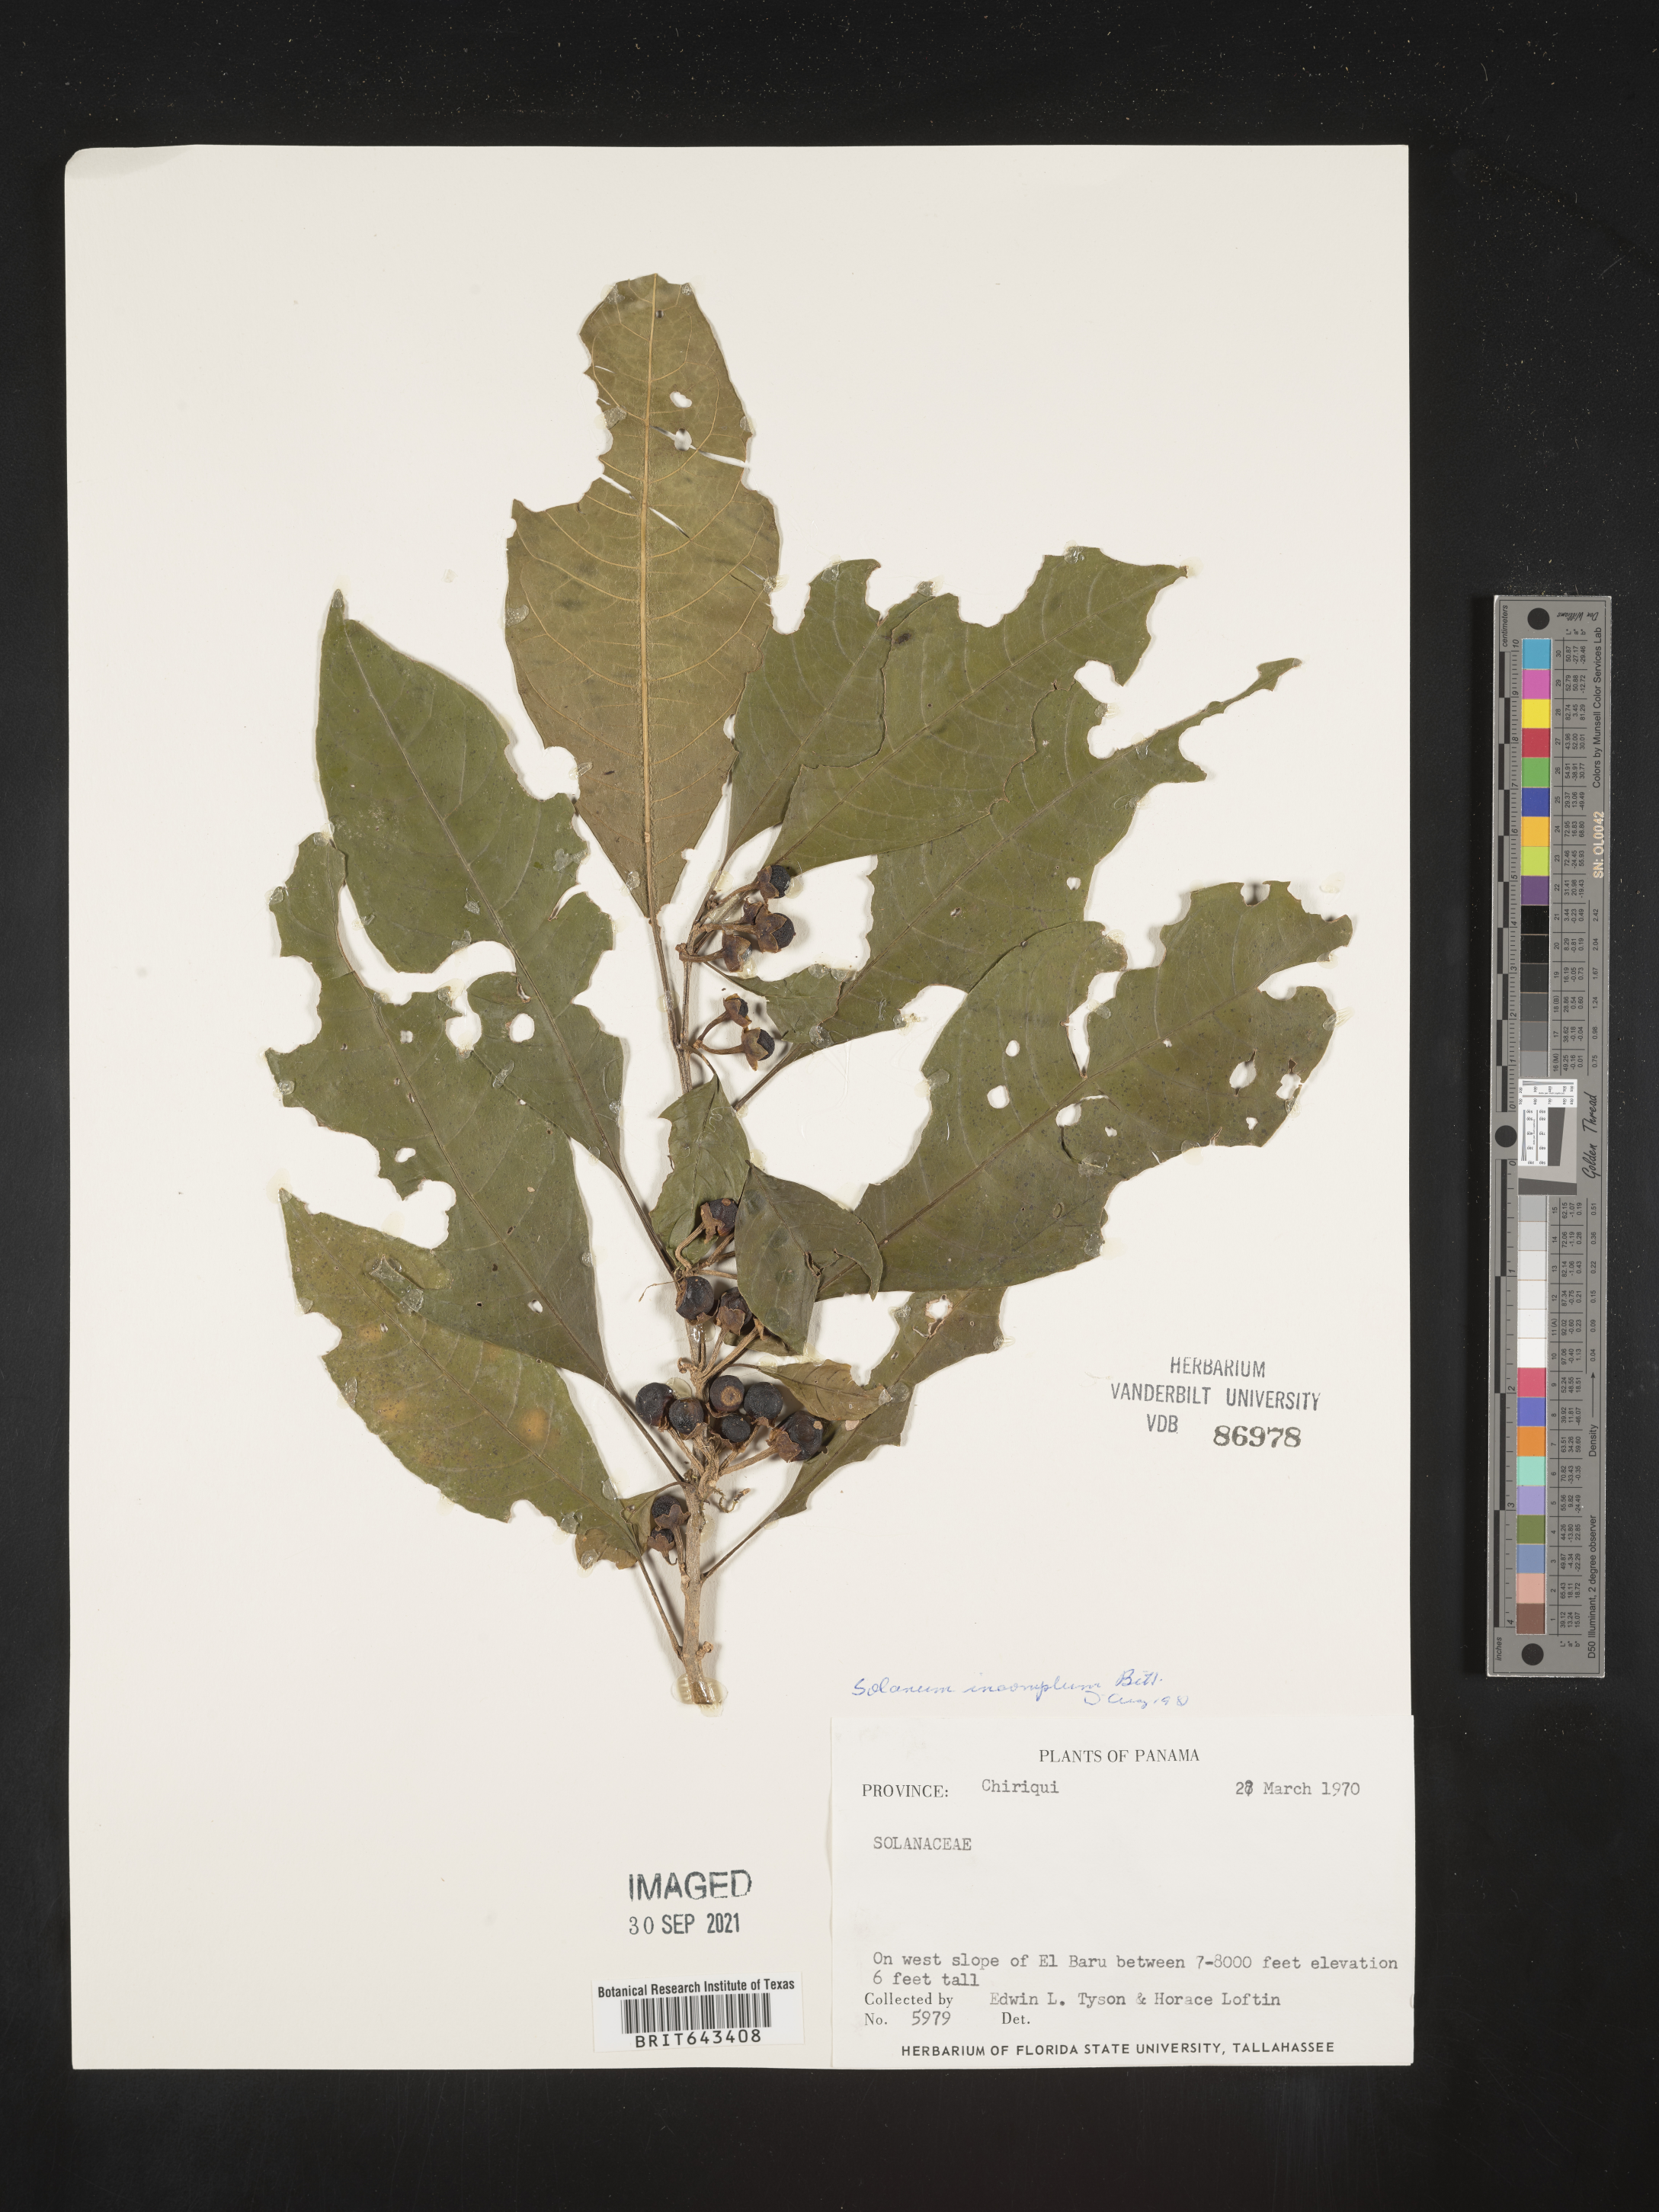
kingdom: Plantae
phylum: Tracheophyta
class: Magnoliopsida
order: Solanales
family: Solanaceae
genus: Solanum
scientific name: Solanum
